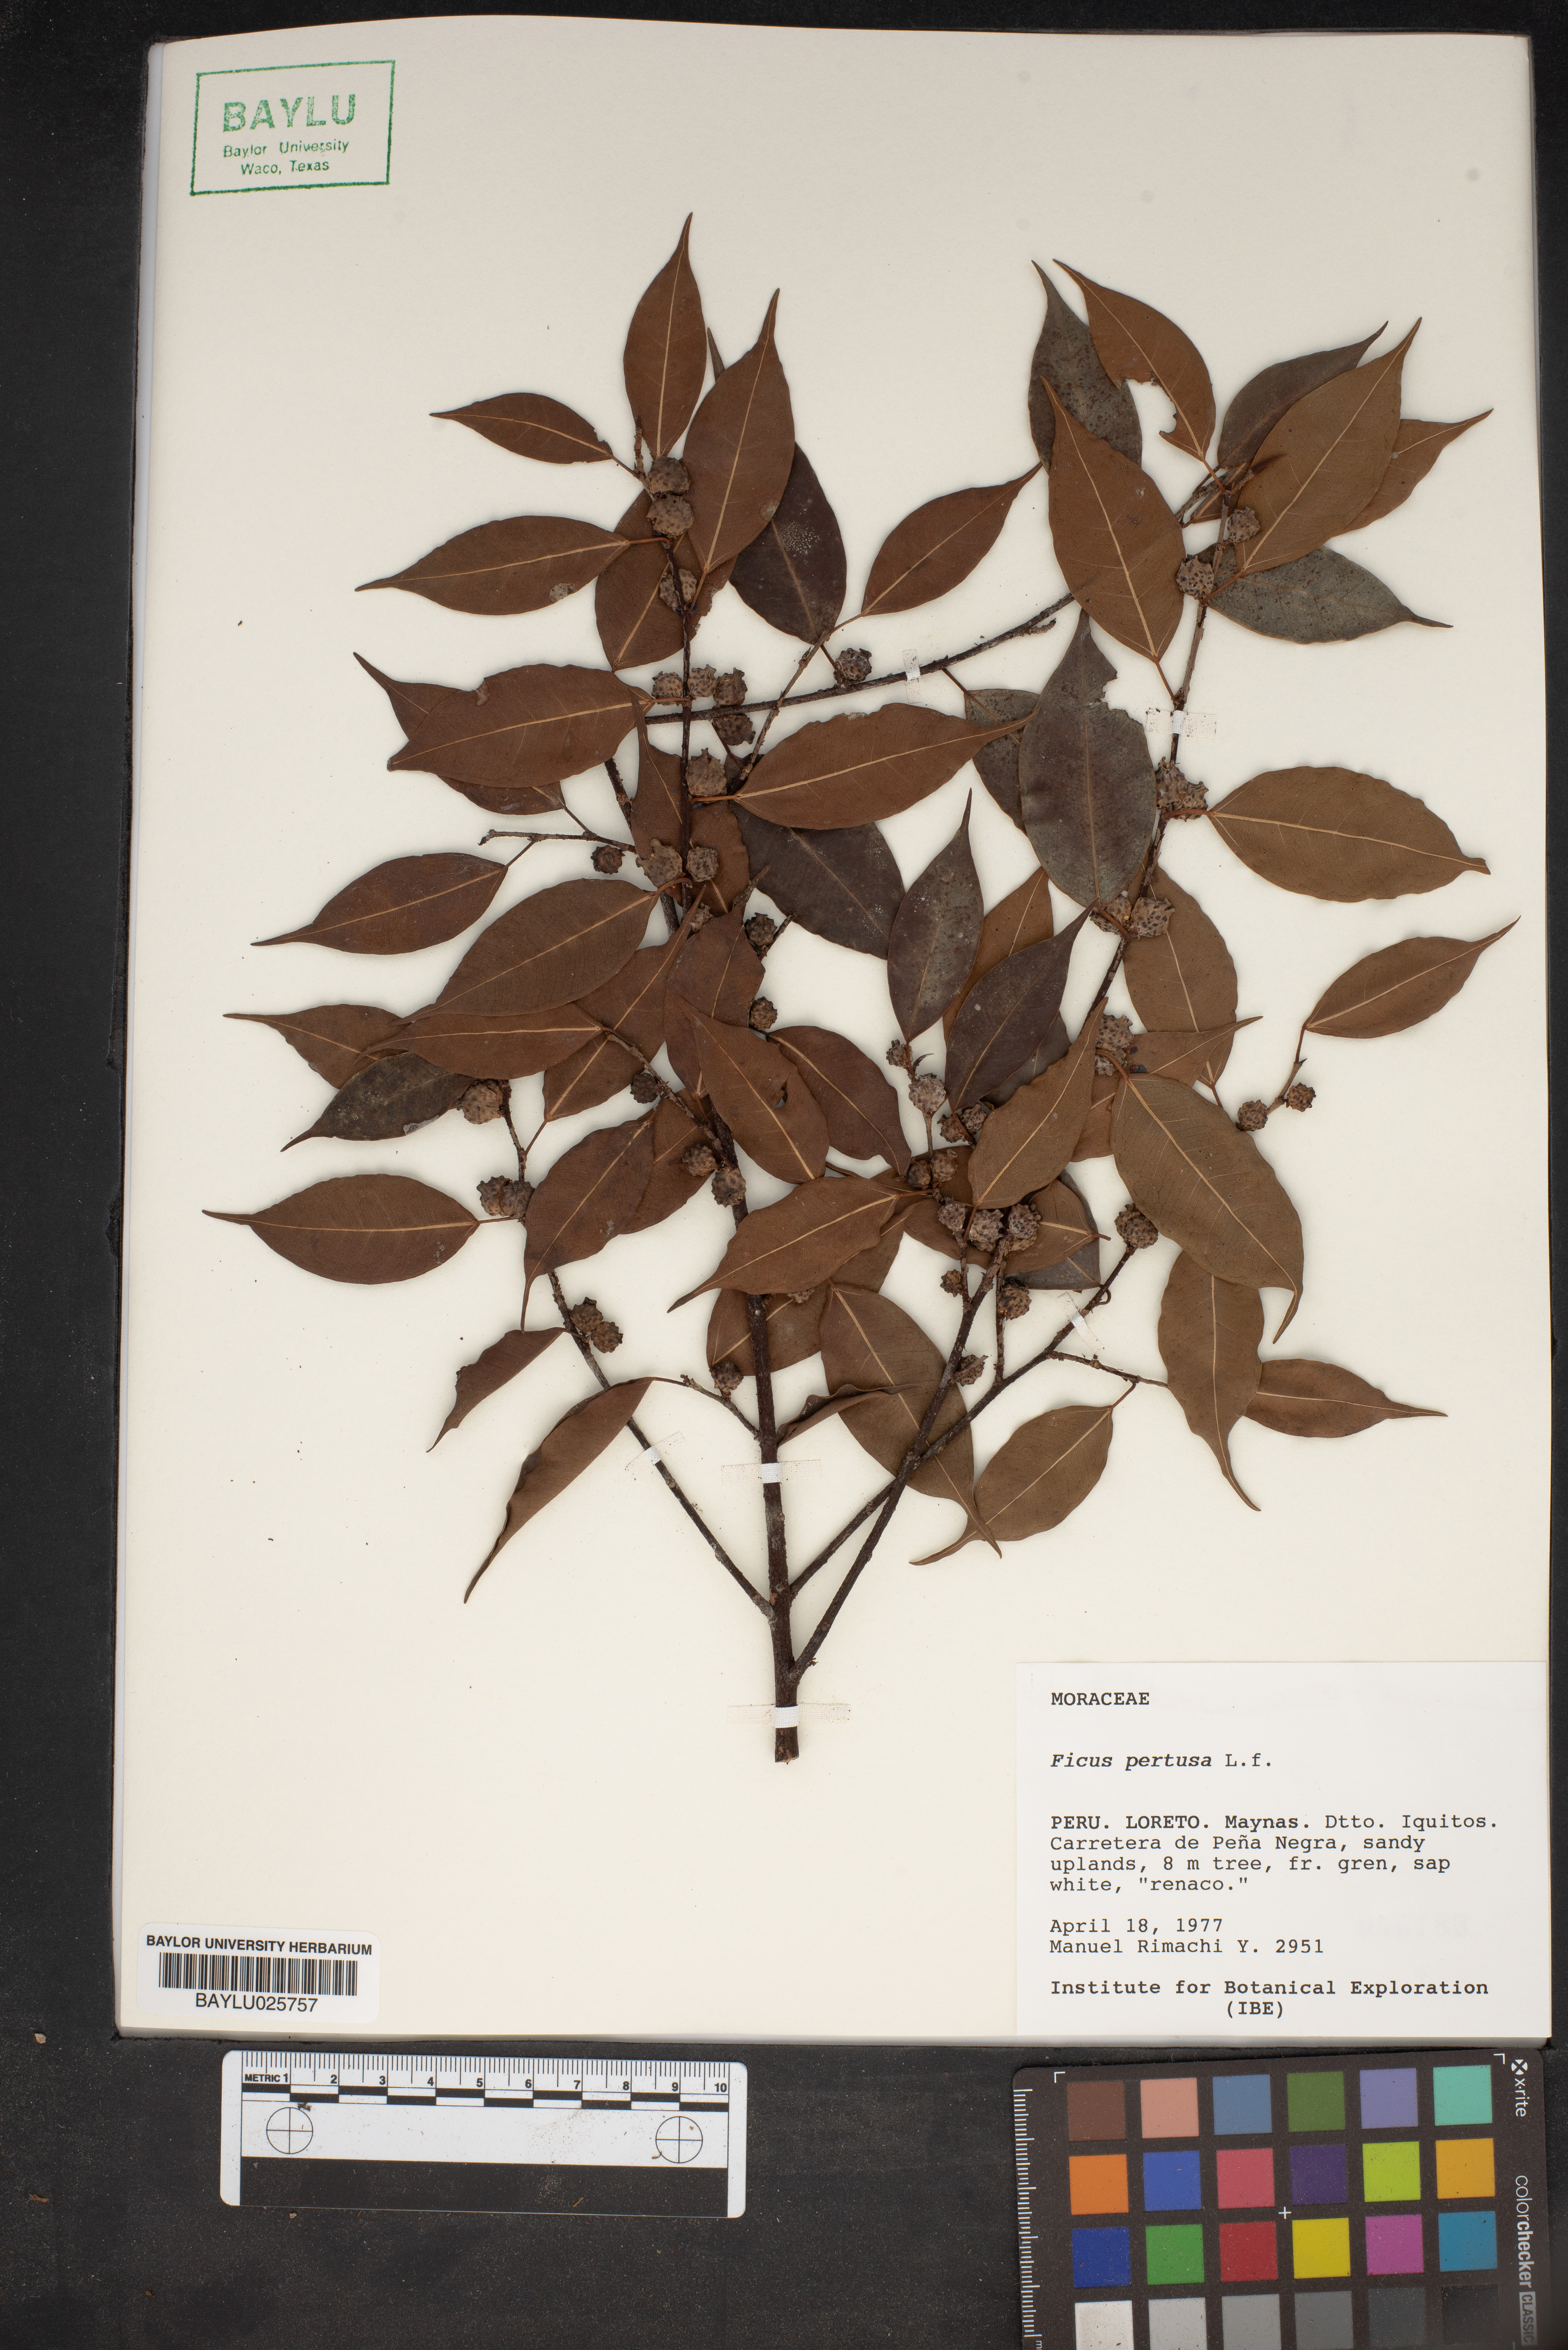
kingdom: Plantae
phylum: Tracheophyta
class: Magnoliopsida
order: Rosales
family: Moraceae
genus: Ficus
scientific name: Ficus pertusa
